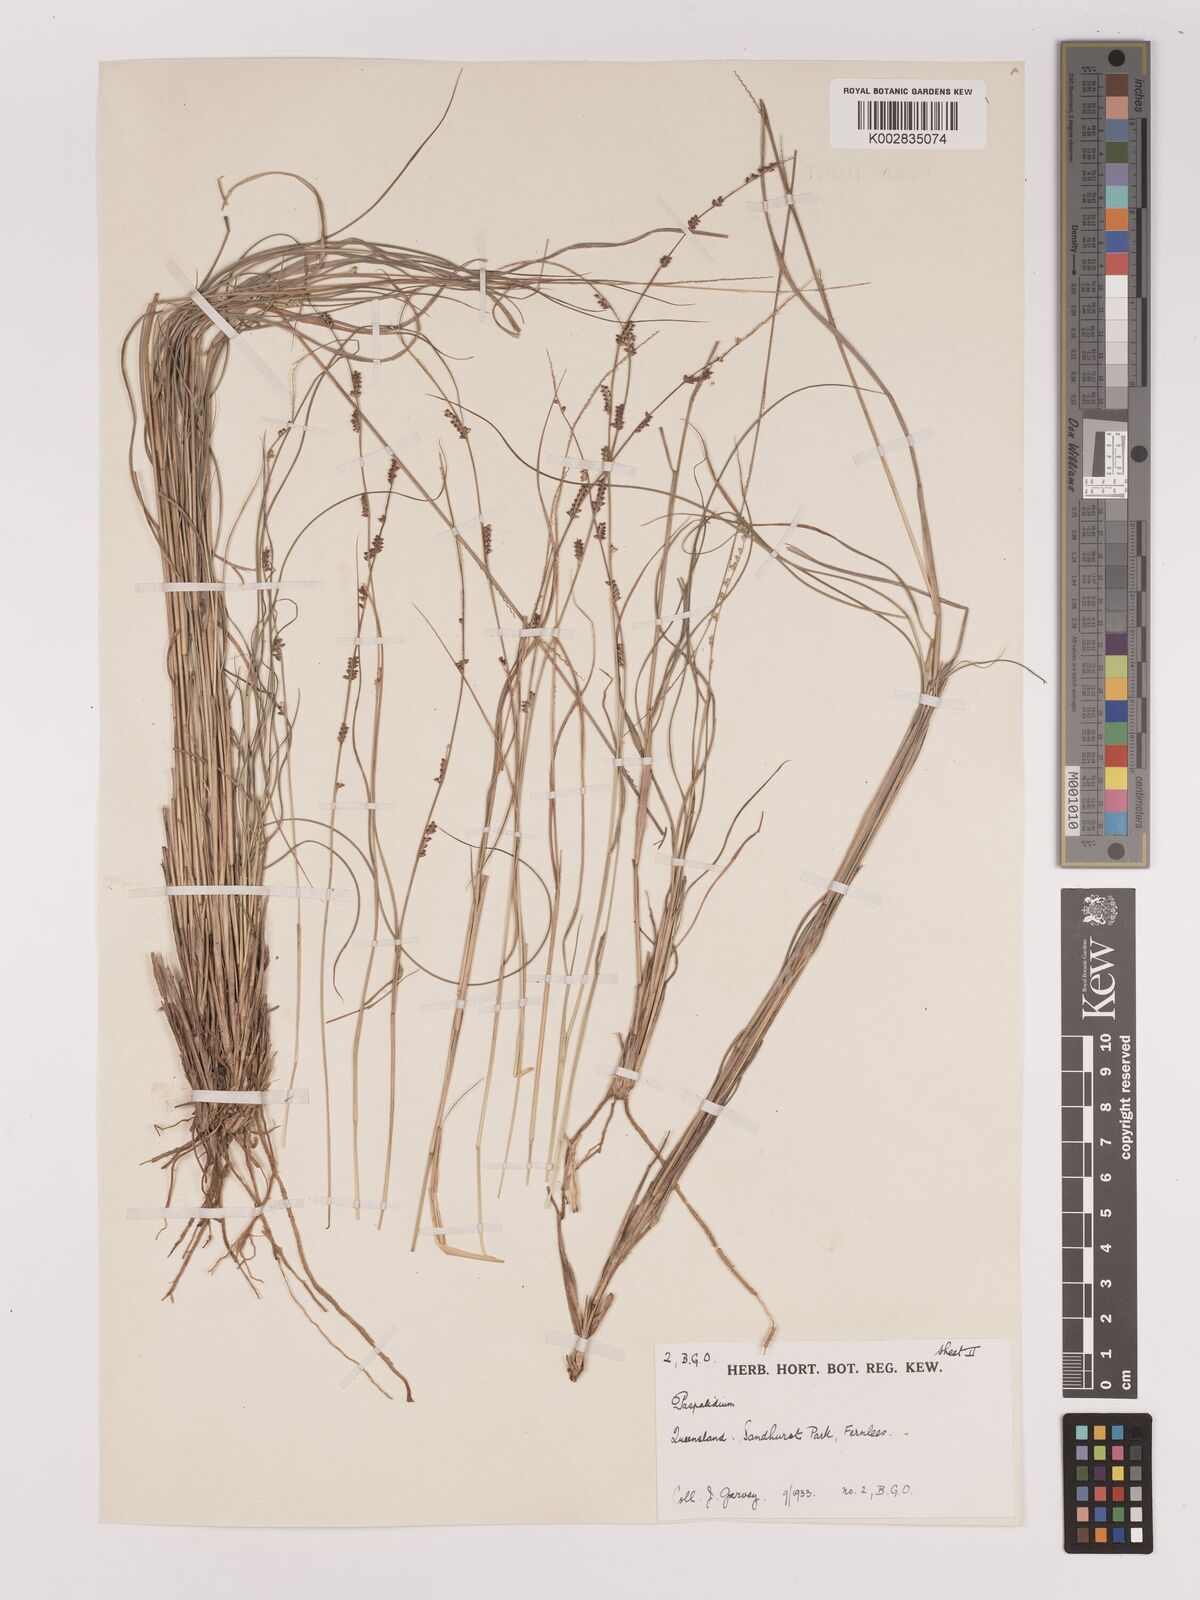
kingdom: Plantae
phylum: Tracheophyta
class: Liliopsida
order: Poales
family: Poaceae
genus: Setaria
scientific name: Setaria
